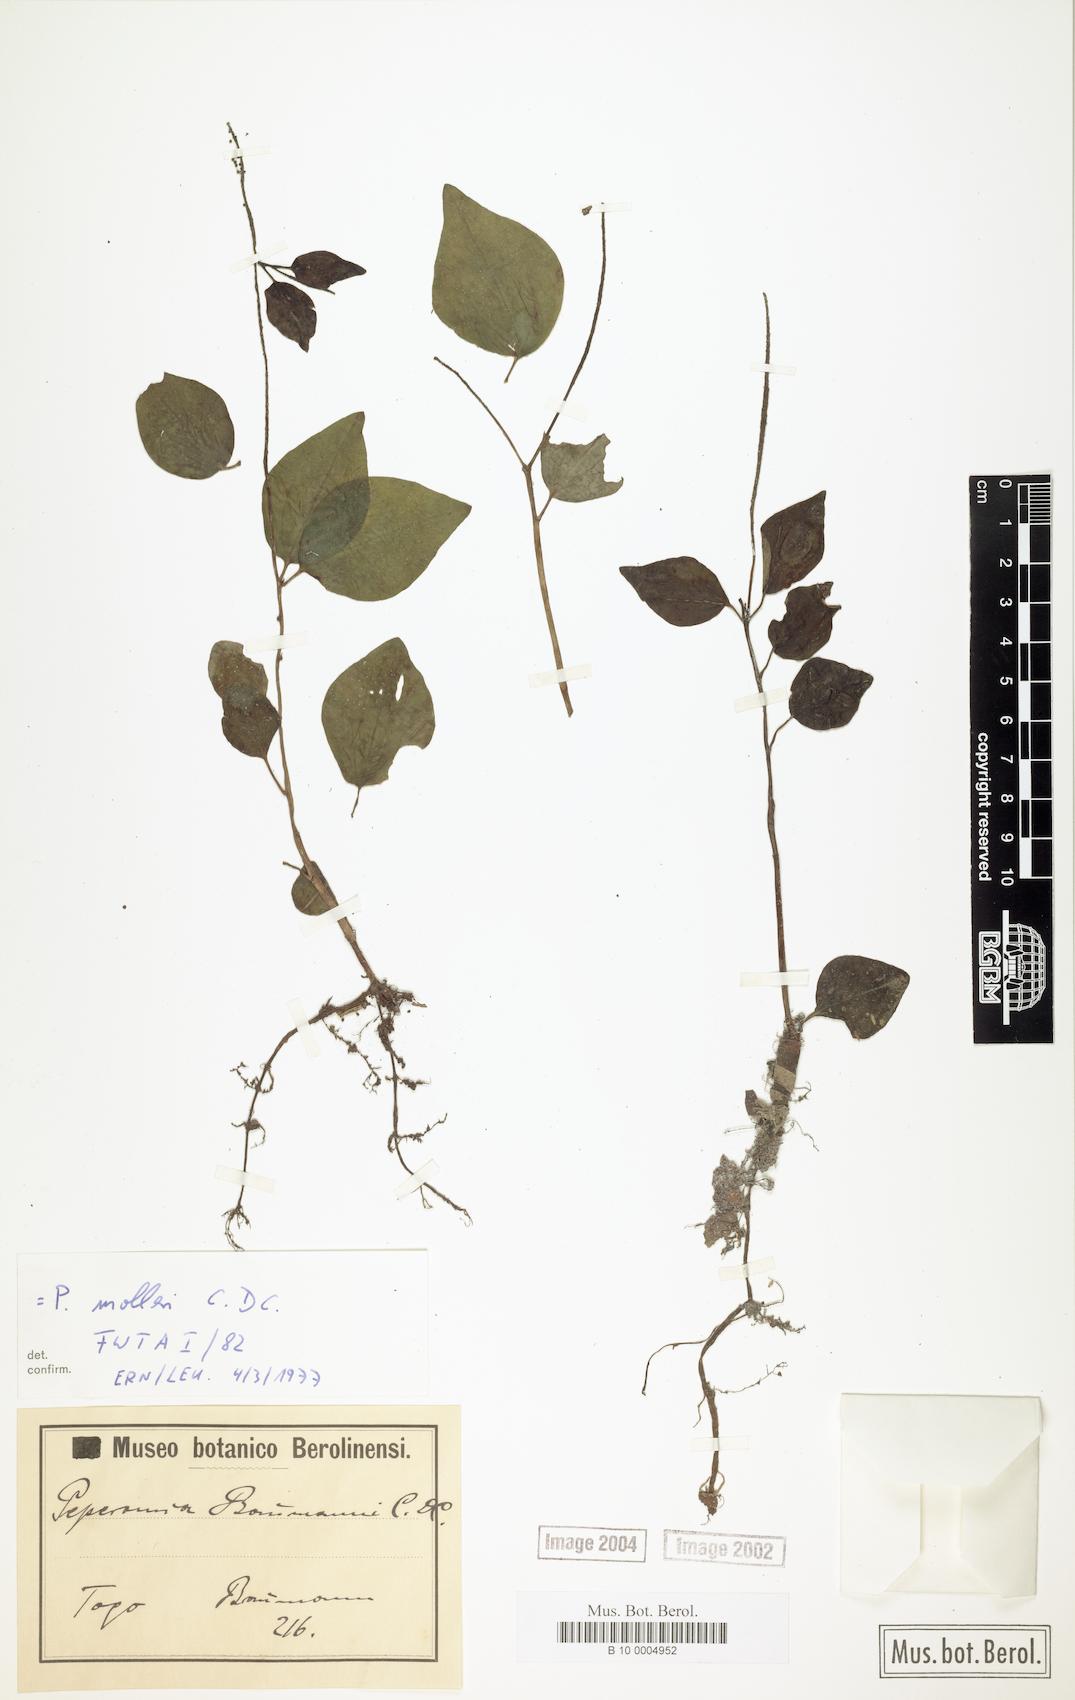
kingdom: Plantae
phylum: Tracheophyta
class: Magnoliopsida
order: Piperales
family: Piperaceae
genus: Peperomia
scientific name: Peperomia molleri
